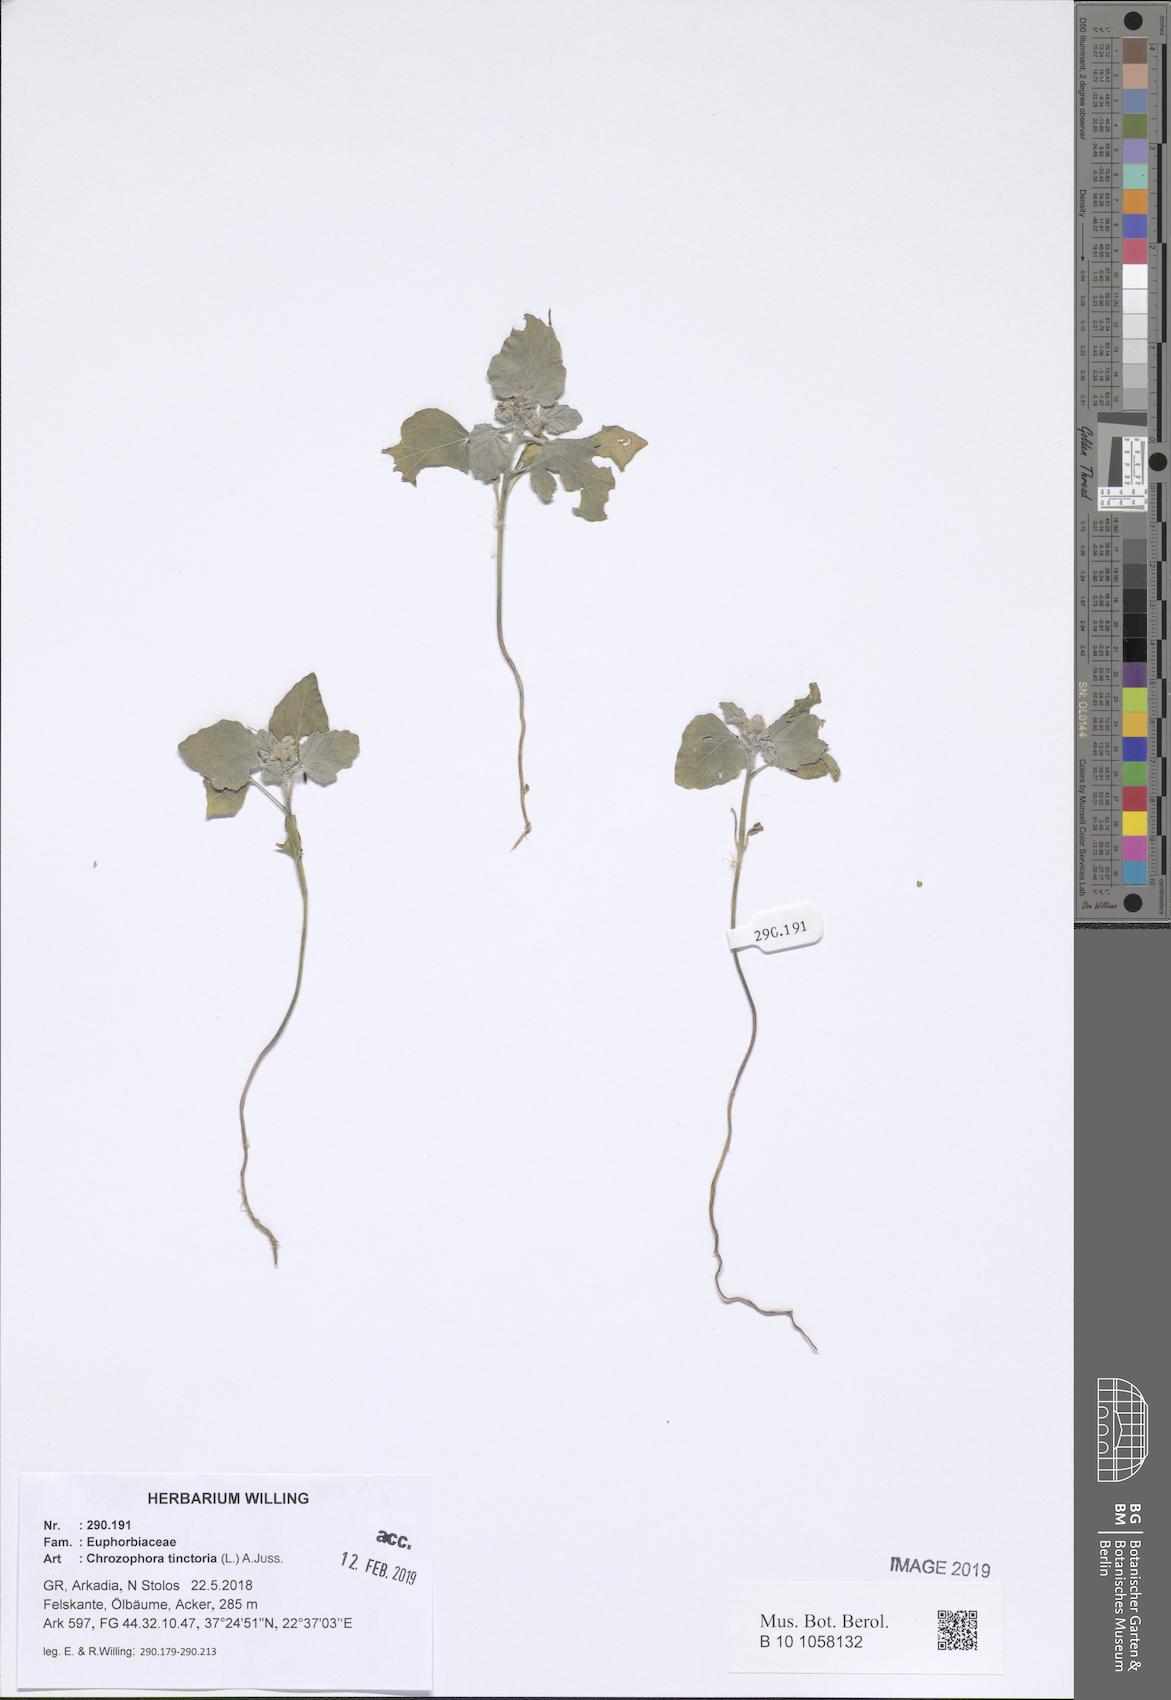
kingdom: Plantae
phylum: Tracheophyta
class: Magnoliopsida
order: Malpighiales
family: Euphorbiaceae
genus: Chrozophora
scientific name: Chrozophora tinctoria
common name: Dyer's litmus
